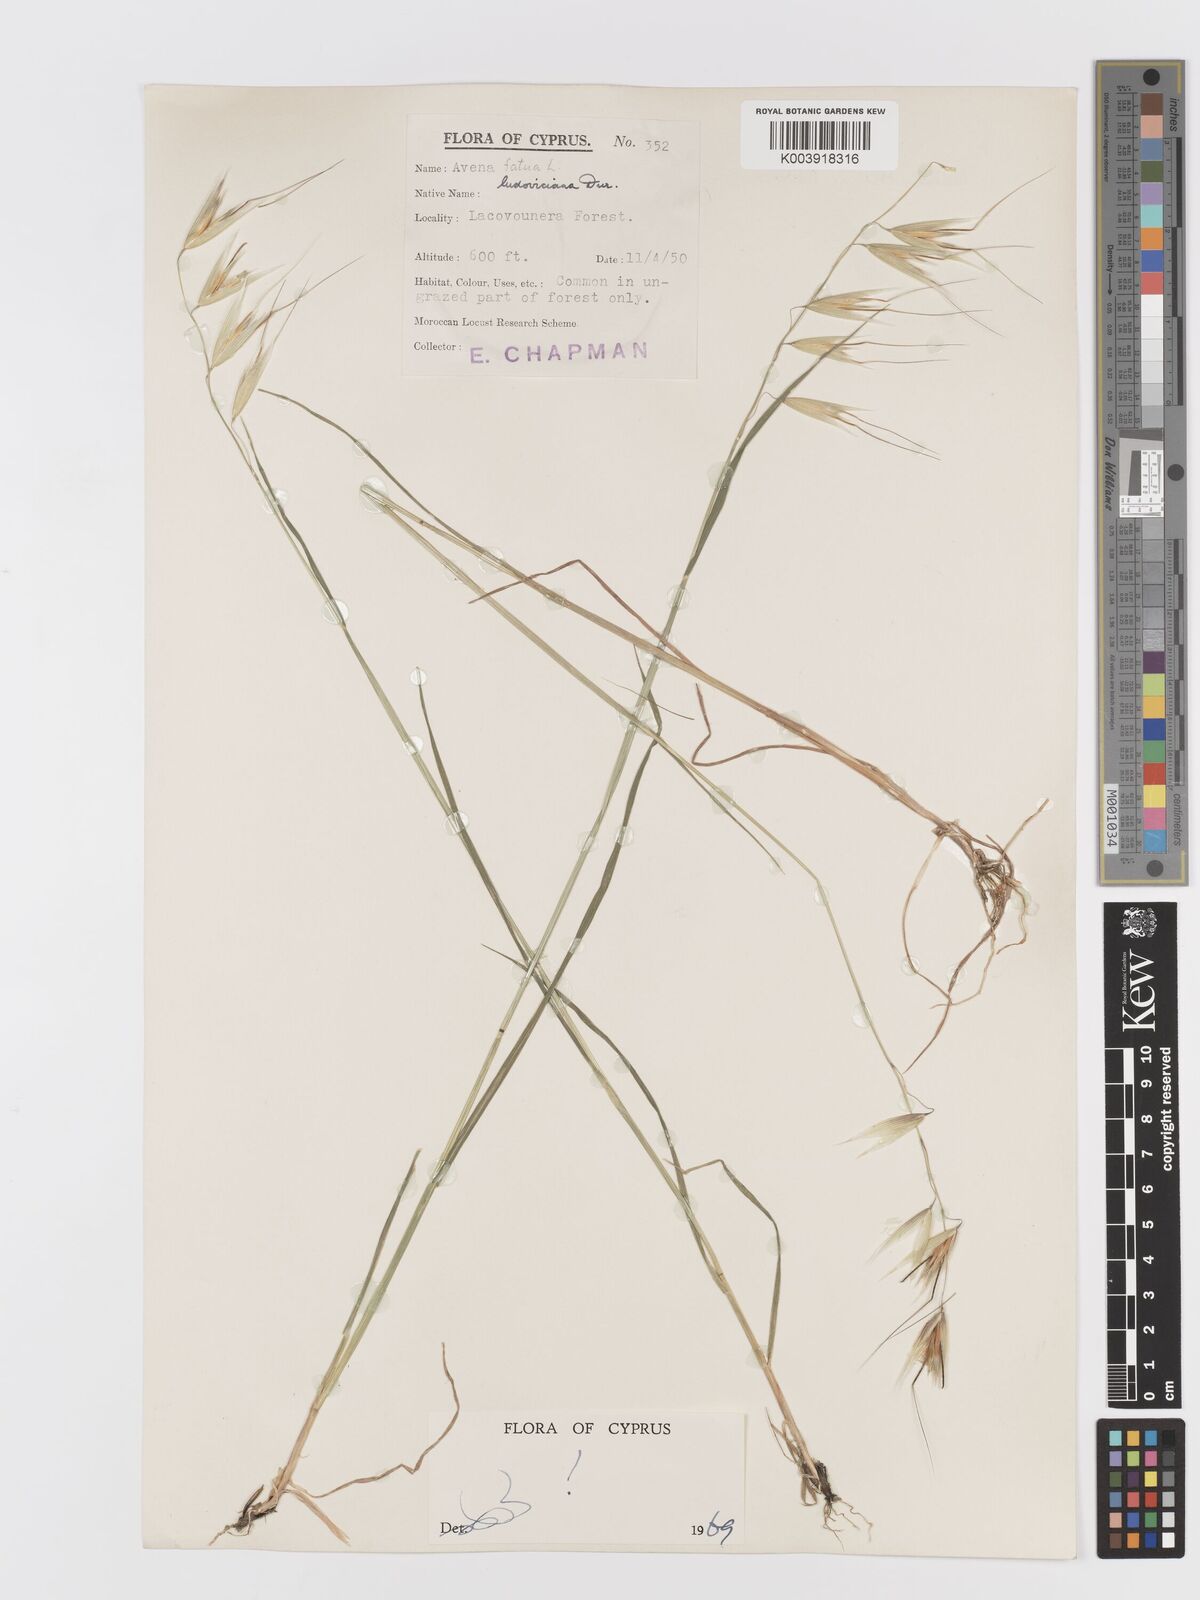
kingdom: Plantae
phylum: Tracheophyta
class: Liliopsida
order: Poales
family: Poaceae
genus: Avena
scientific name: Avena sterilis
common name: Animated oat
